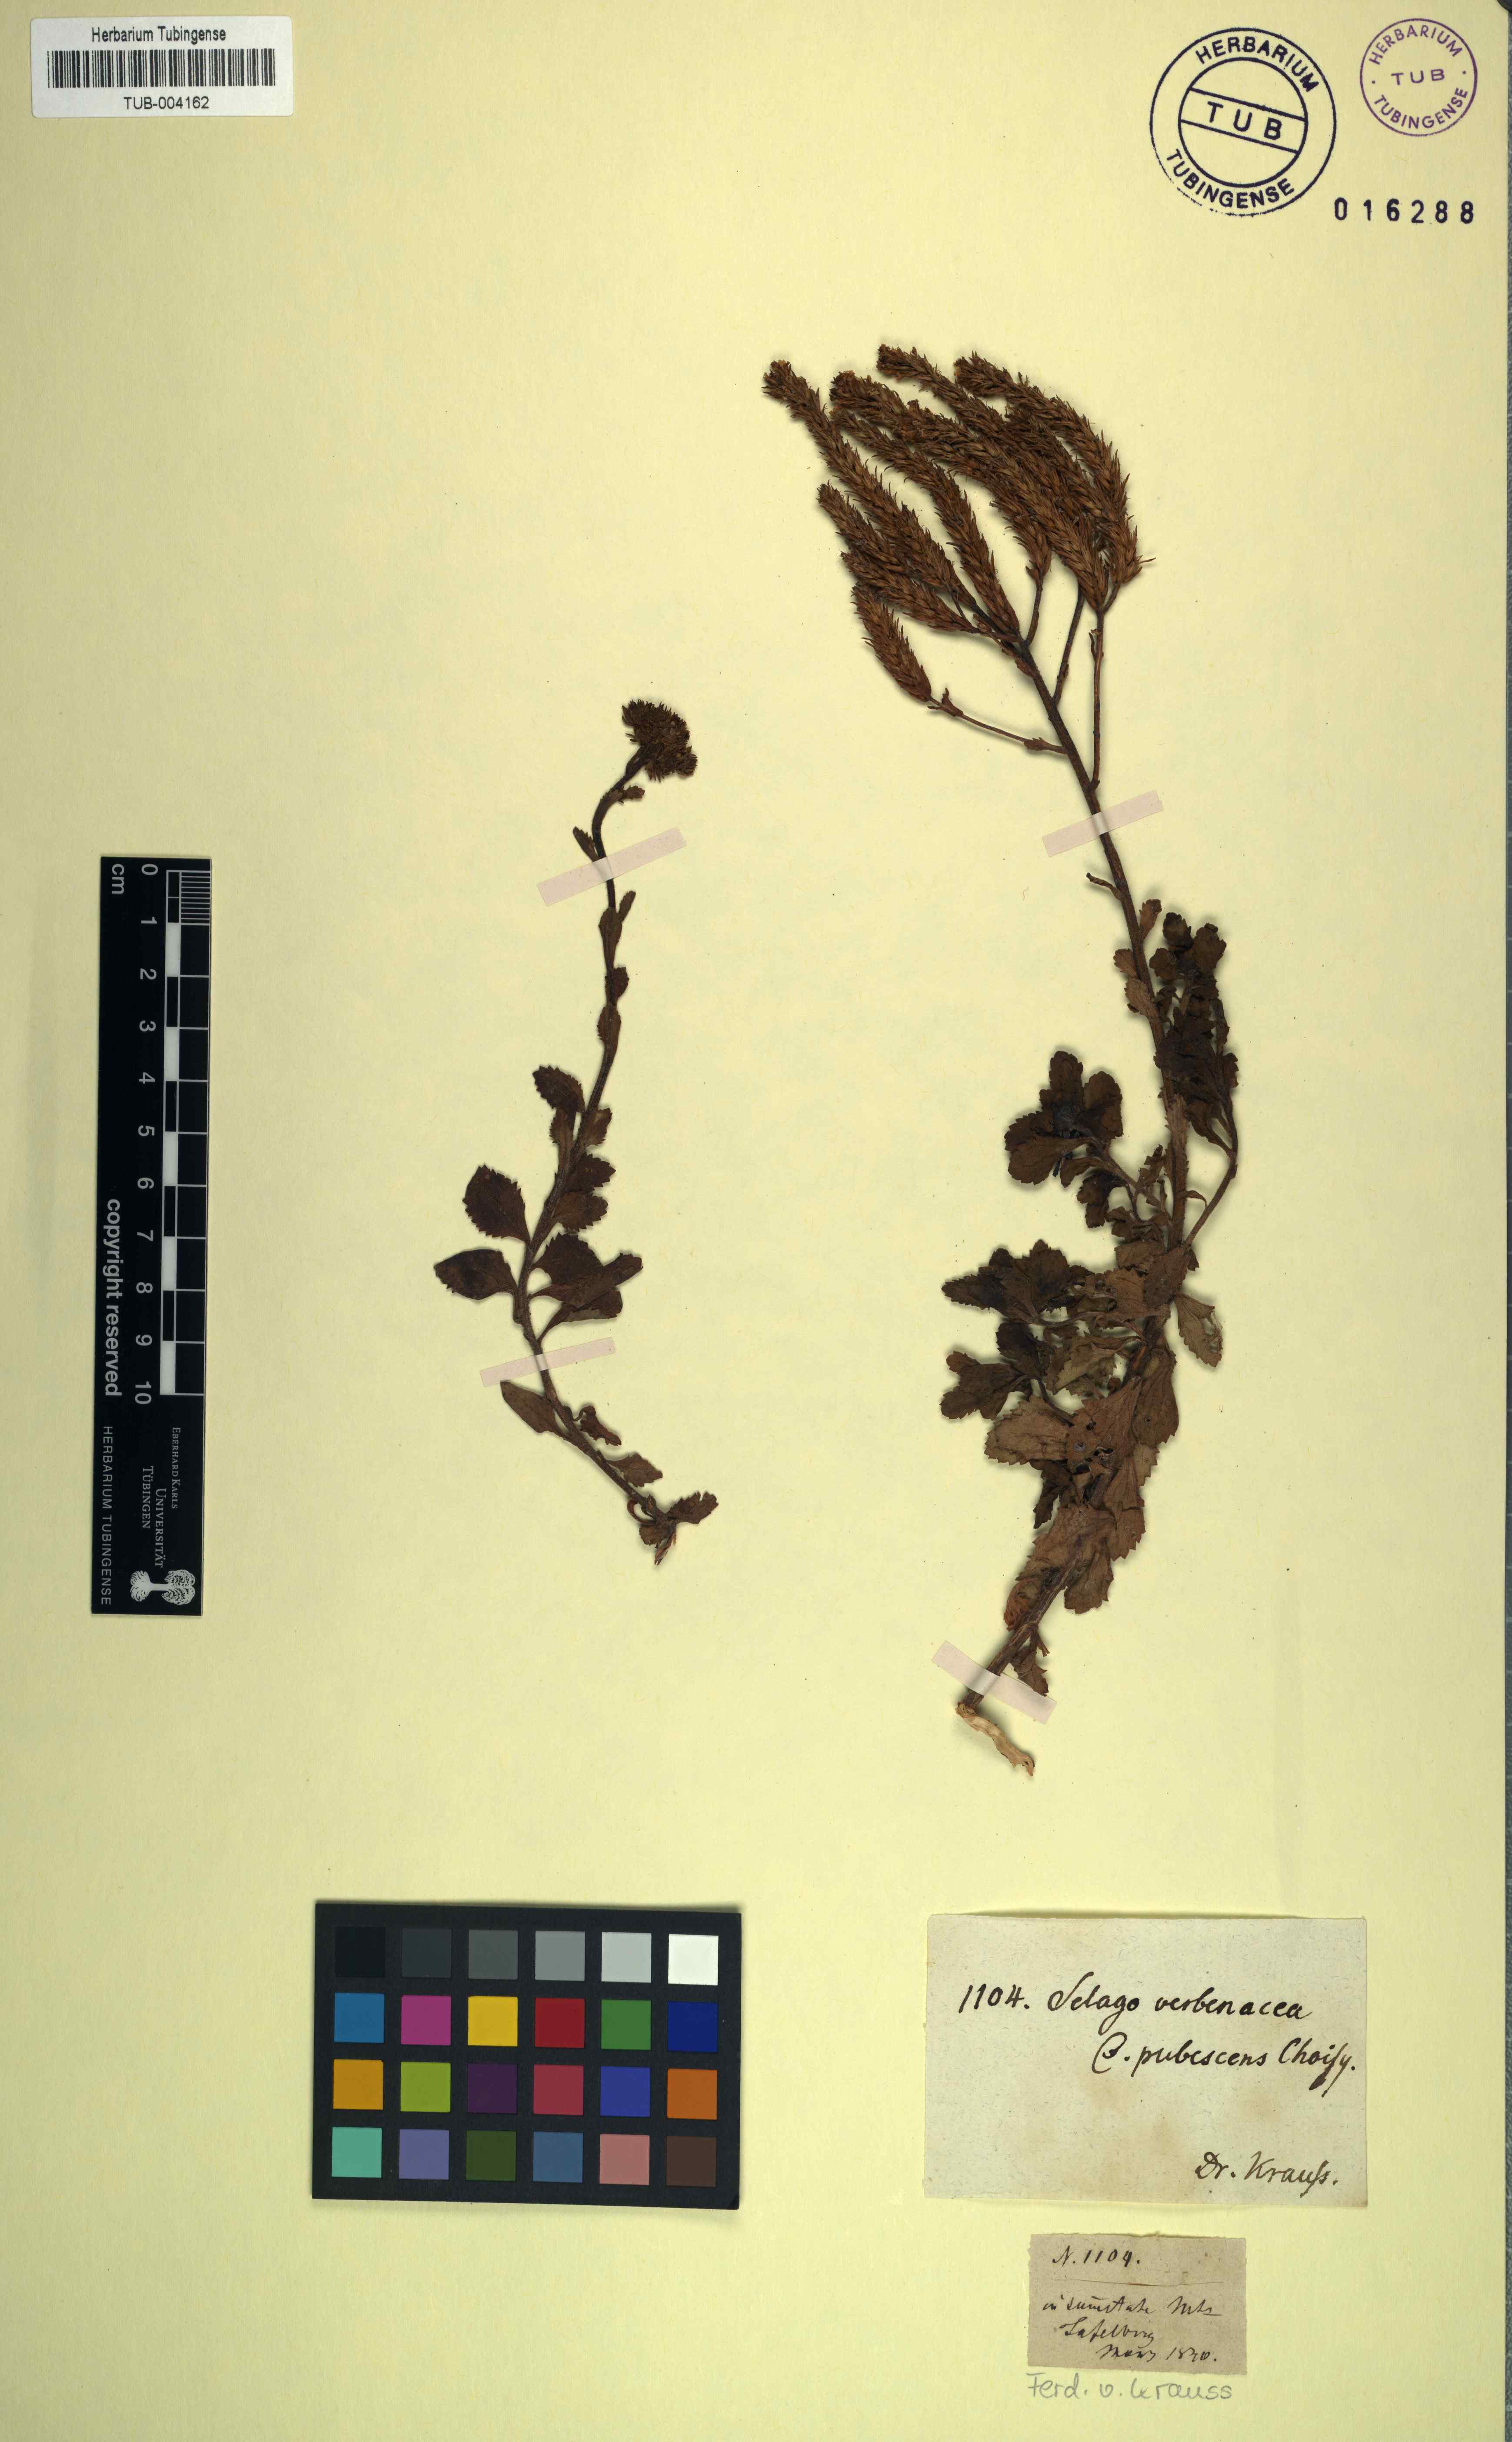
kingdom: Plantae
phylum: Tracheophyta
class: Magnoliopsida
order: Lamiales
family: Scrophulariaceae
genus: Pseudoselago
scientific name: Pseudoselago verbenacea
